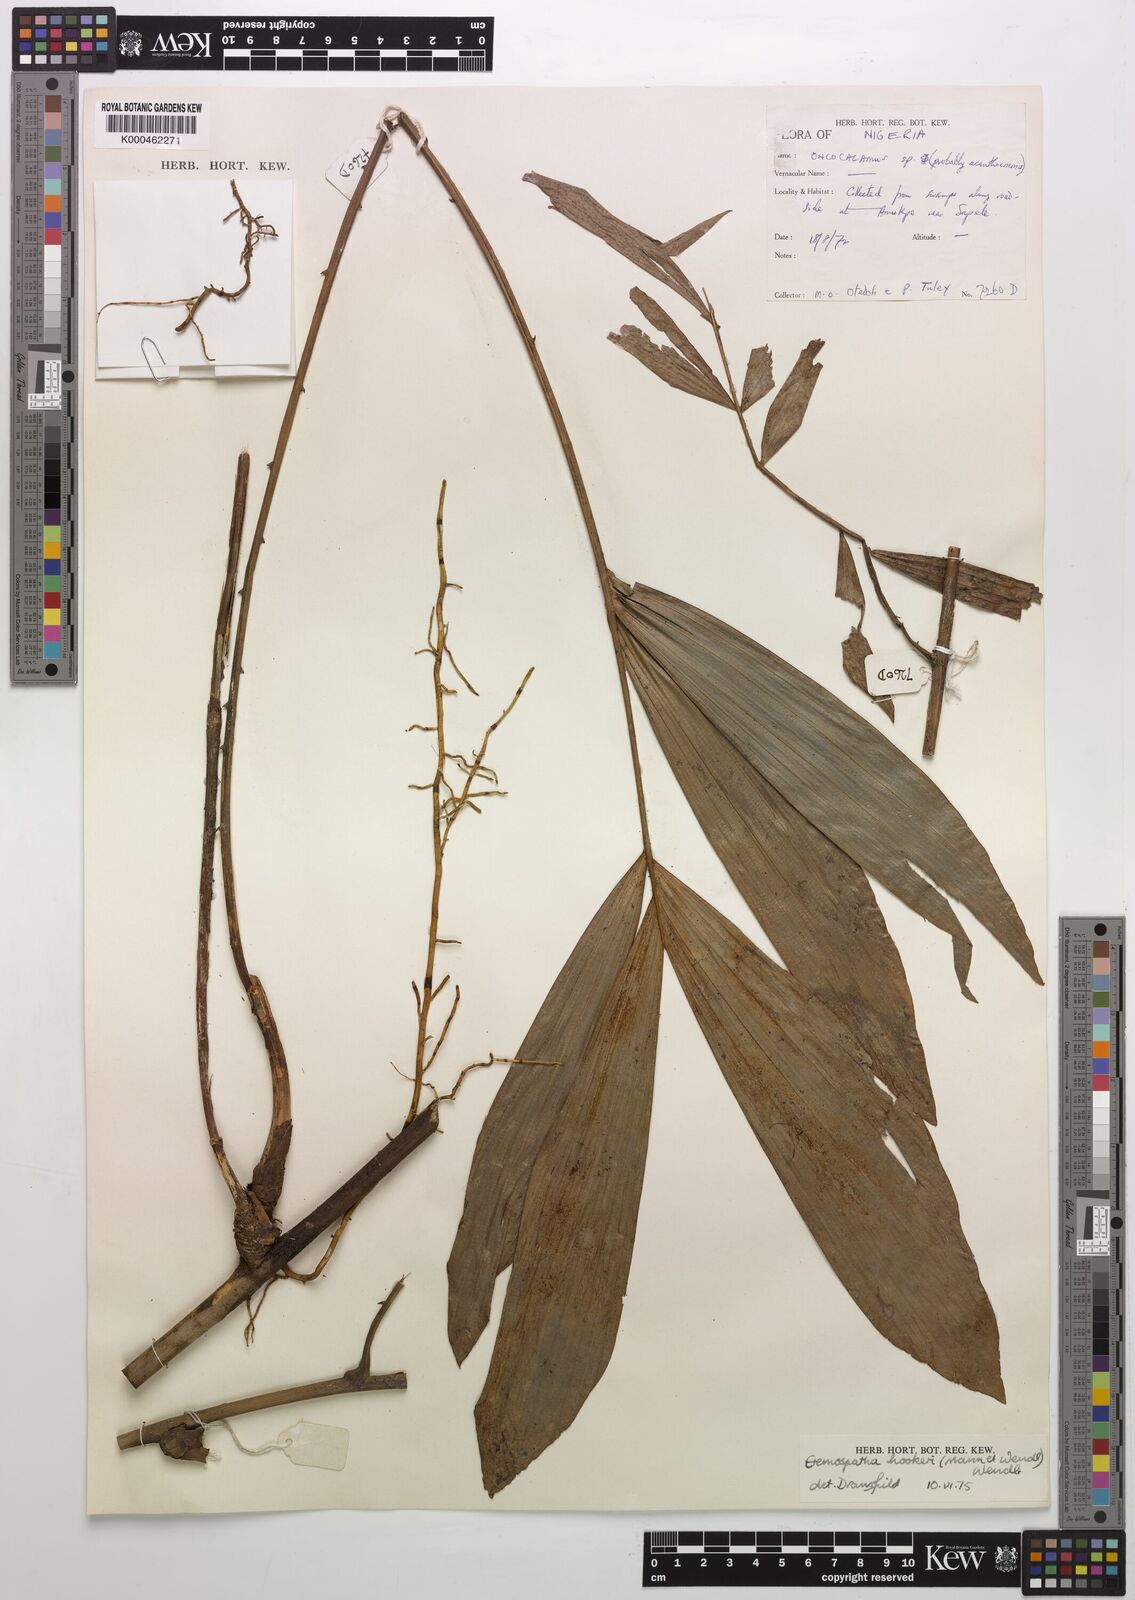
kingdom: Plantae
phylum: Tracheophyta
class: Liliopsida
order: Arecales
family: Arecaceae
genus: Eremospatha
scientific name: Eremospatha hookeri
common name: Rattan
